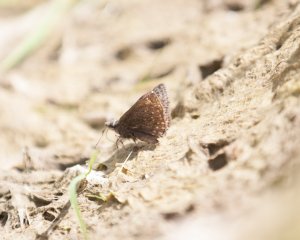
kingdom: Animalia
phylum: Arthropoda
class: Insecta
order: Lepidoptera
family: Hesperiidae
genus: Gesta
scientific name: Gesta
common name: Columbine Duskywing
